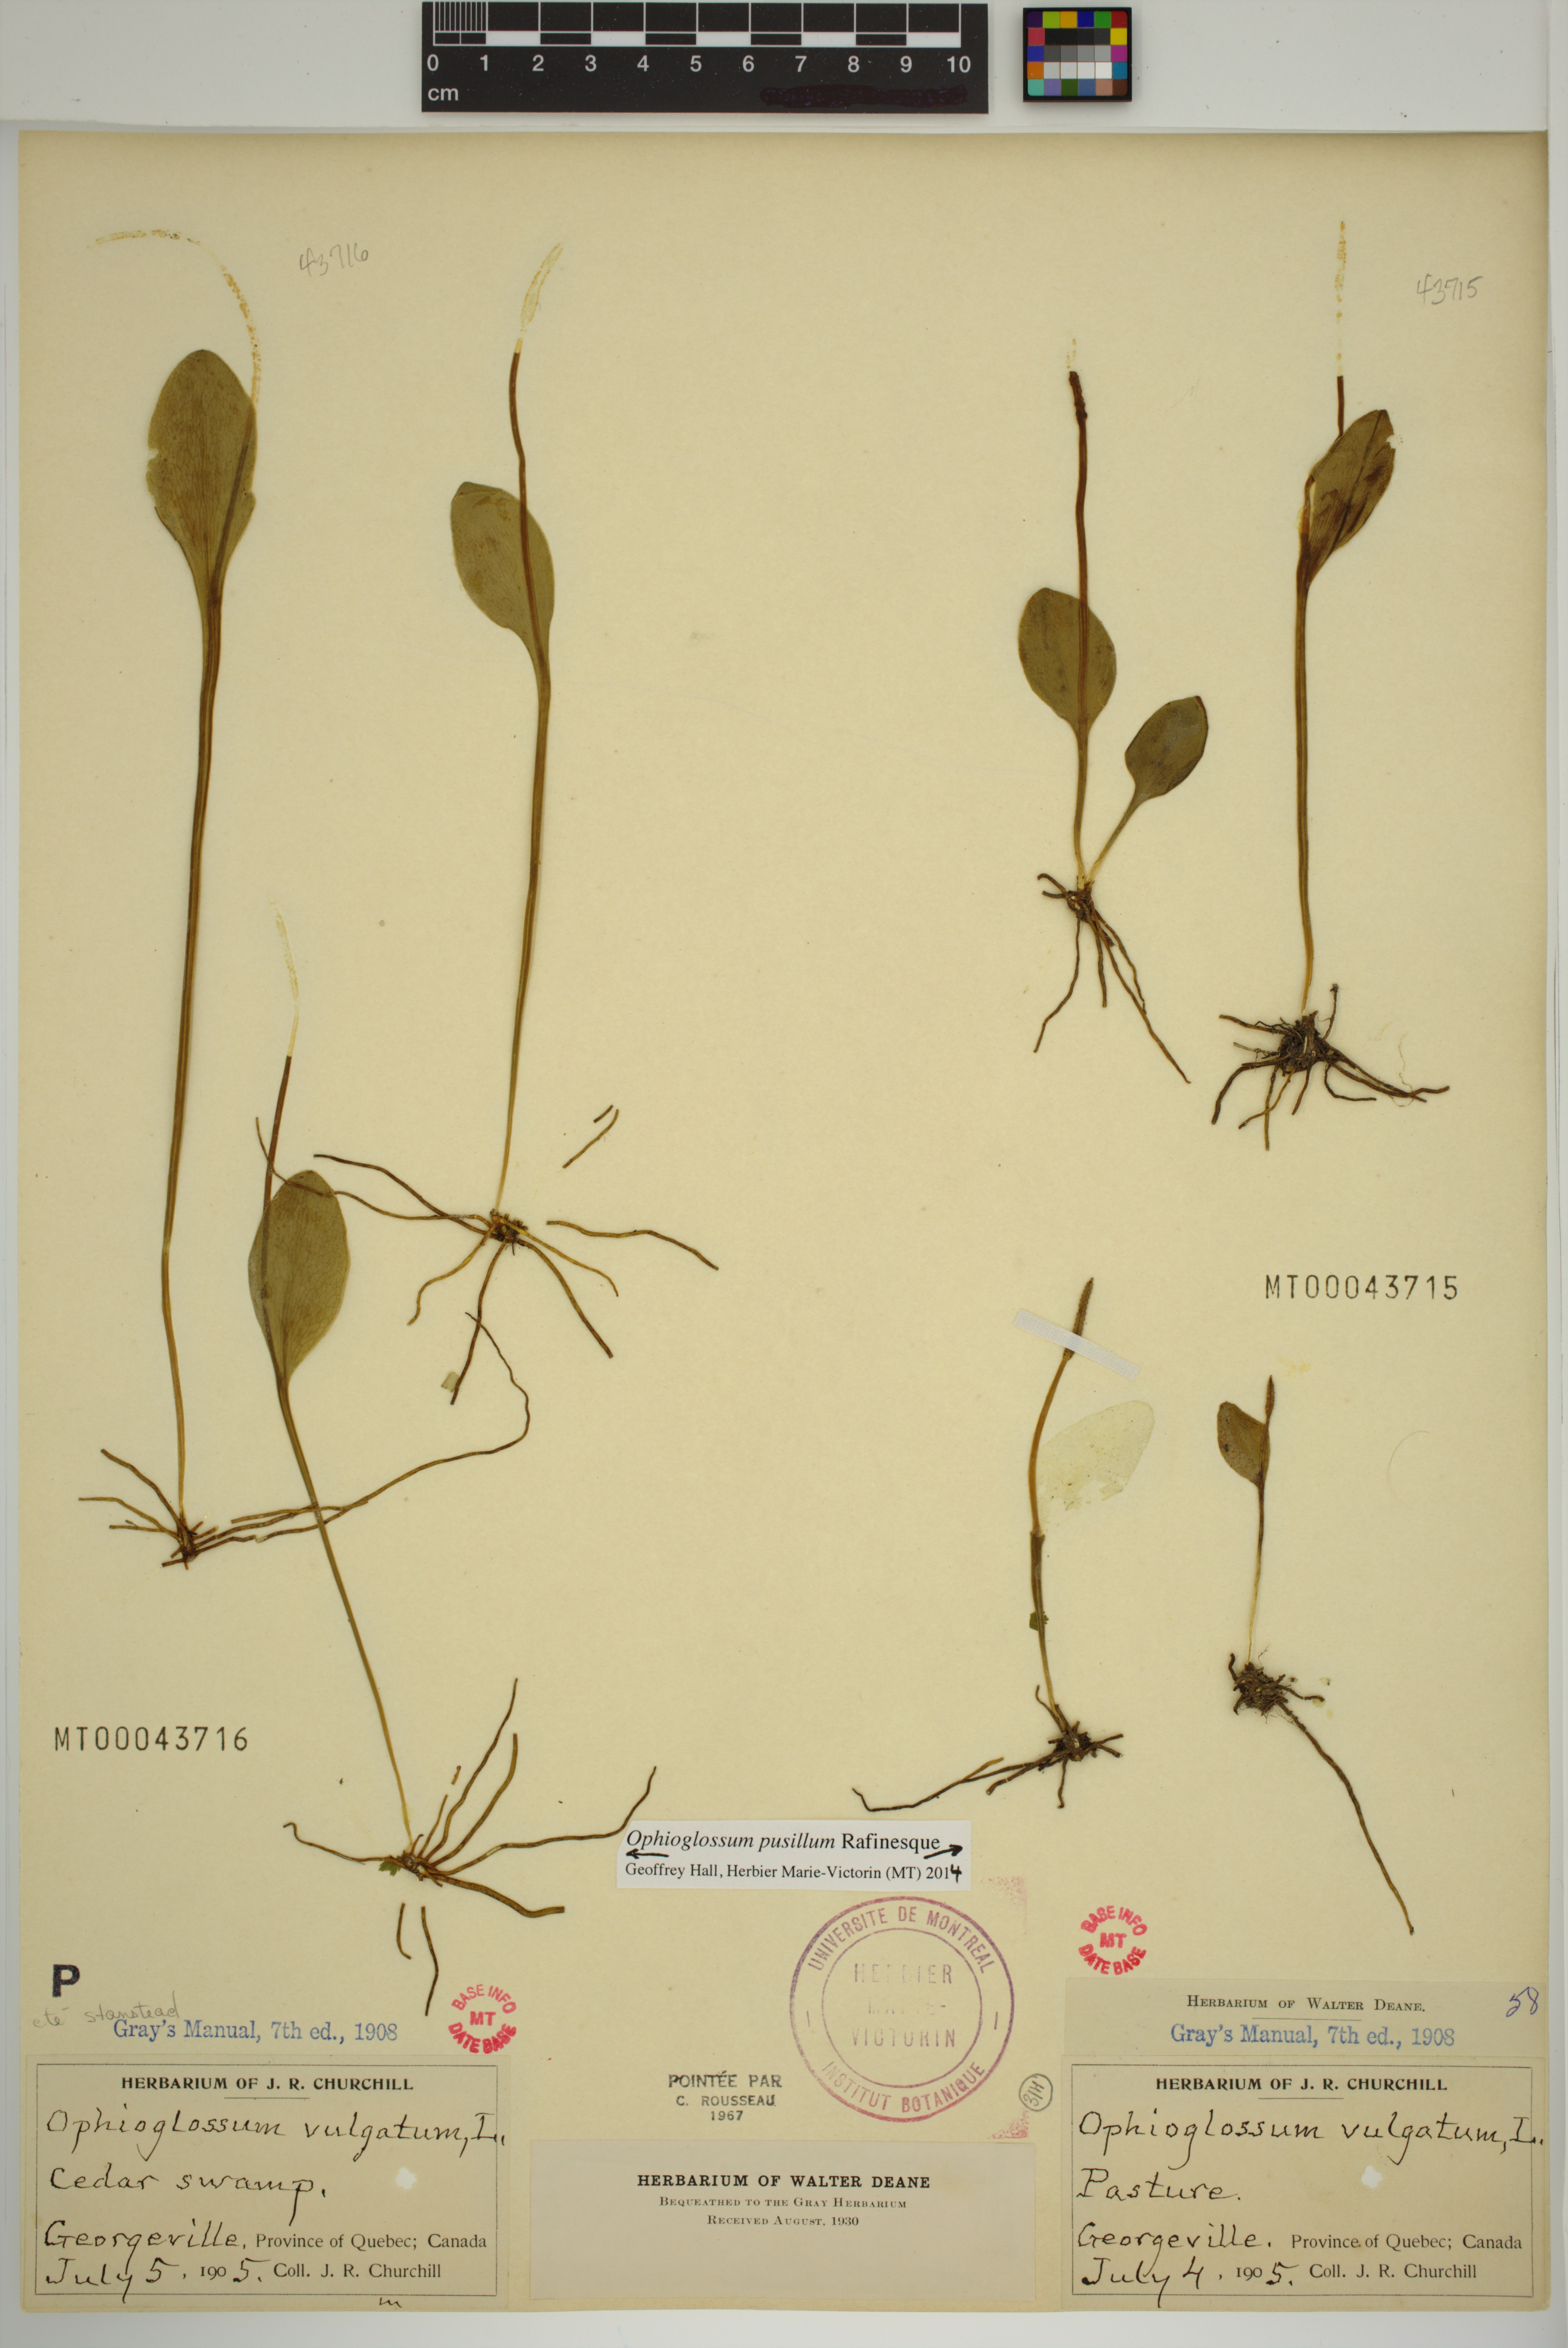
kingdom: Plantae
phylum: Tracheophyta
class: Polypodiopsida
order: Ophioglossales
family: Ophioglossaceae
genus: Ophioglossum
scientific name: Ophioglossum pusillum
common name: Northern adder's-tongue
